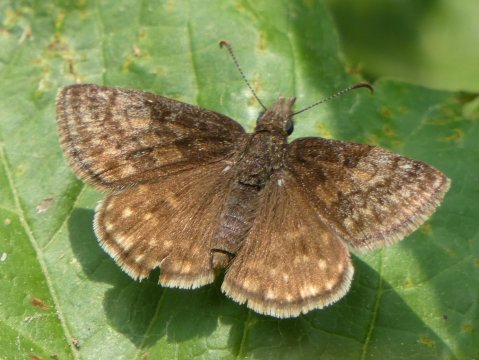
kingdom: Animalia
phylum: Arthropoda
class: Insecta
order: Lepidoptera
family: Hesperiidae
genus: Erynnis
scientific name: Erynnis icelus
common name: Dreamy Duskywing
